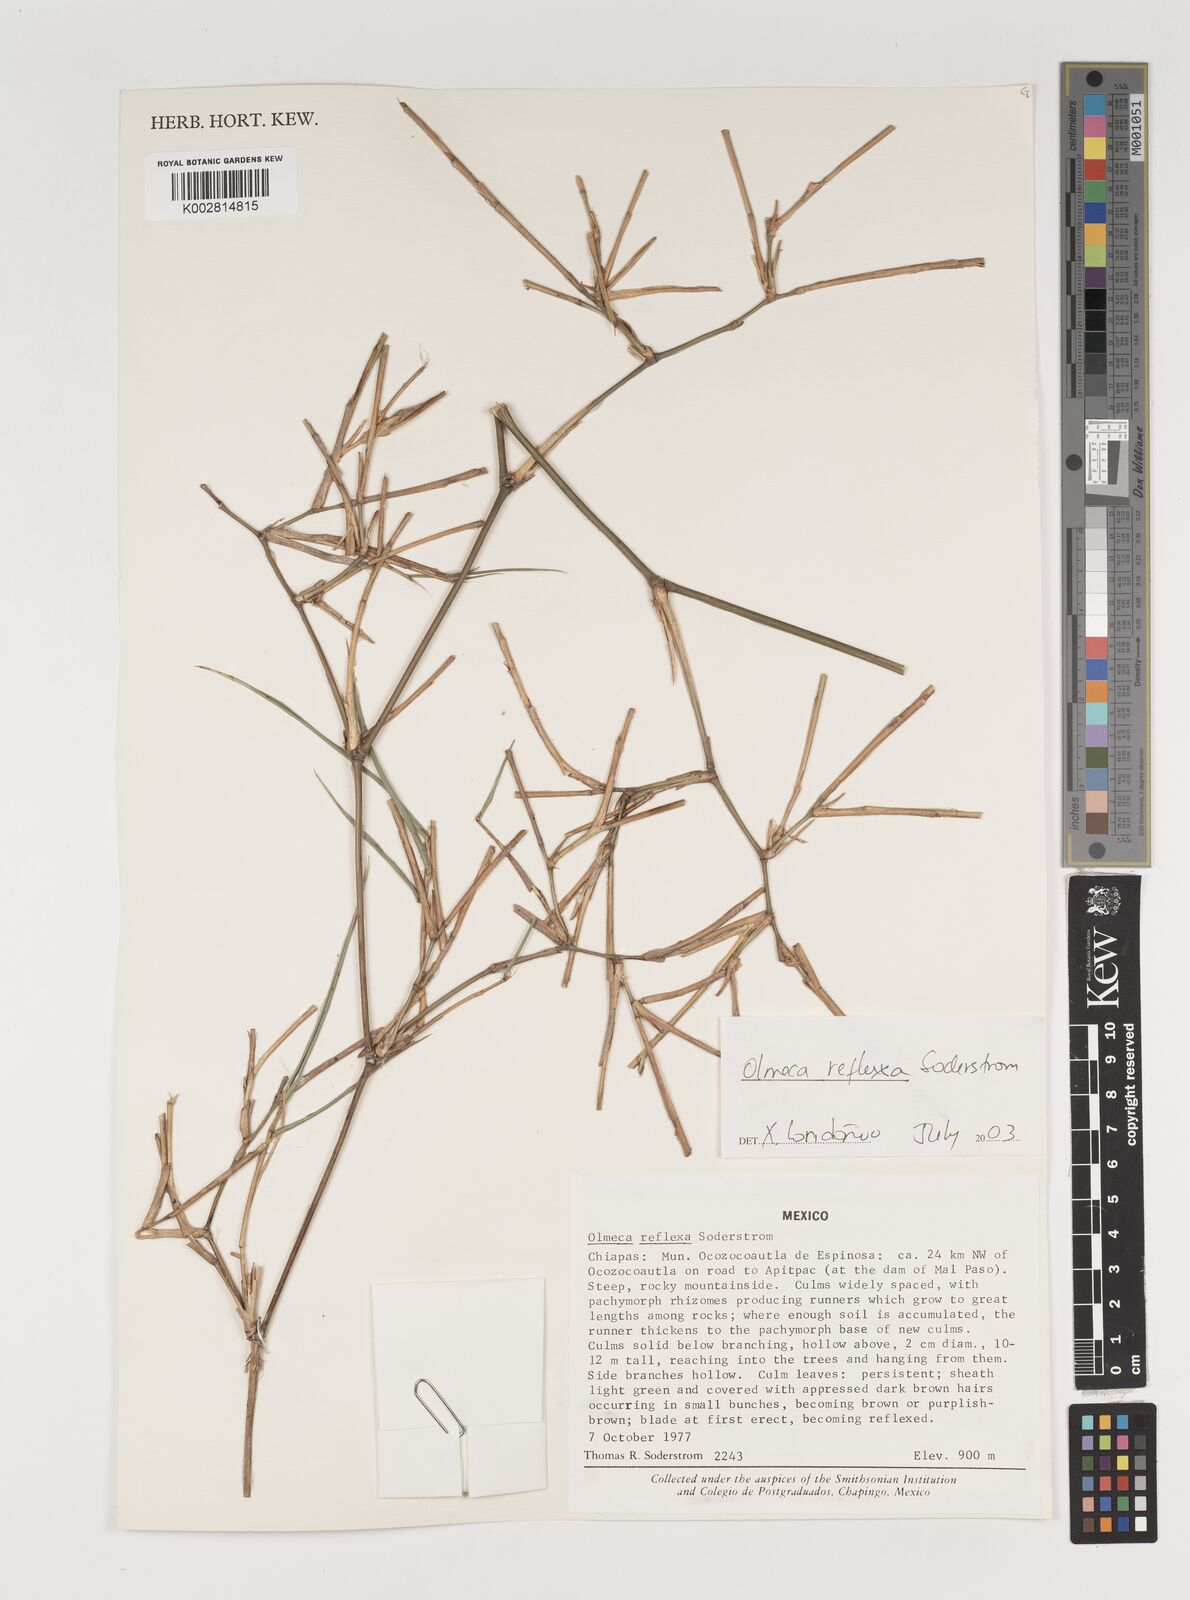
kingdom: Plantae
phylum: Tracheophyta
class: Liliopsida
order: Poales
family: Poaceae
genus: Olmeca
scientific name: Olmeca reflexa
